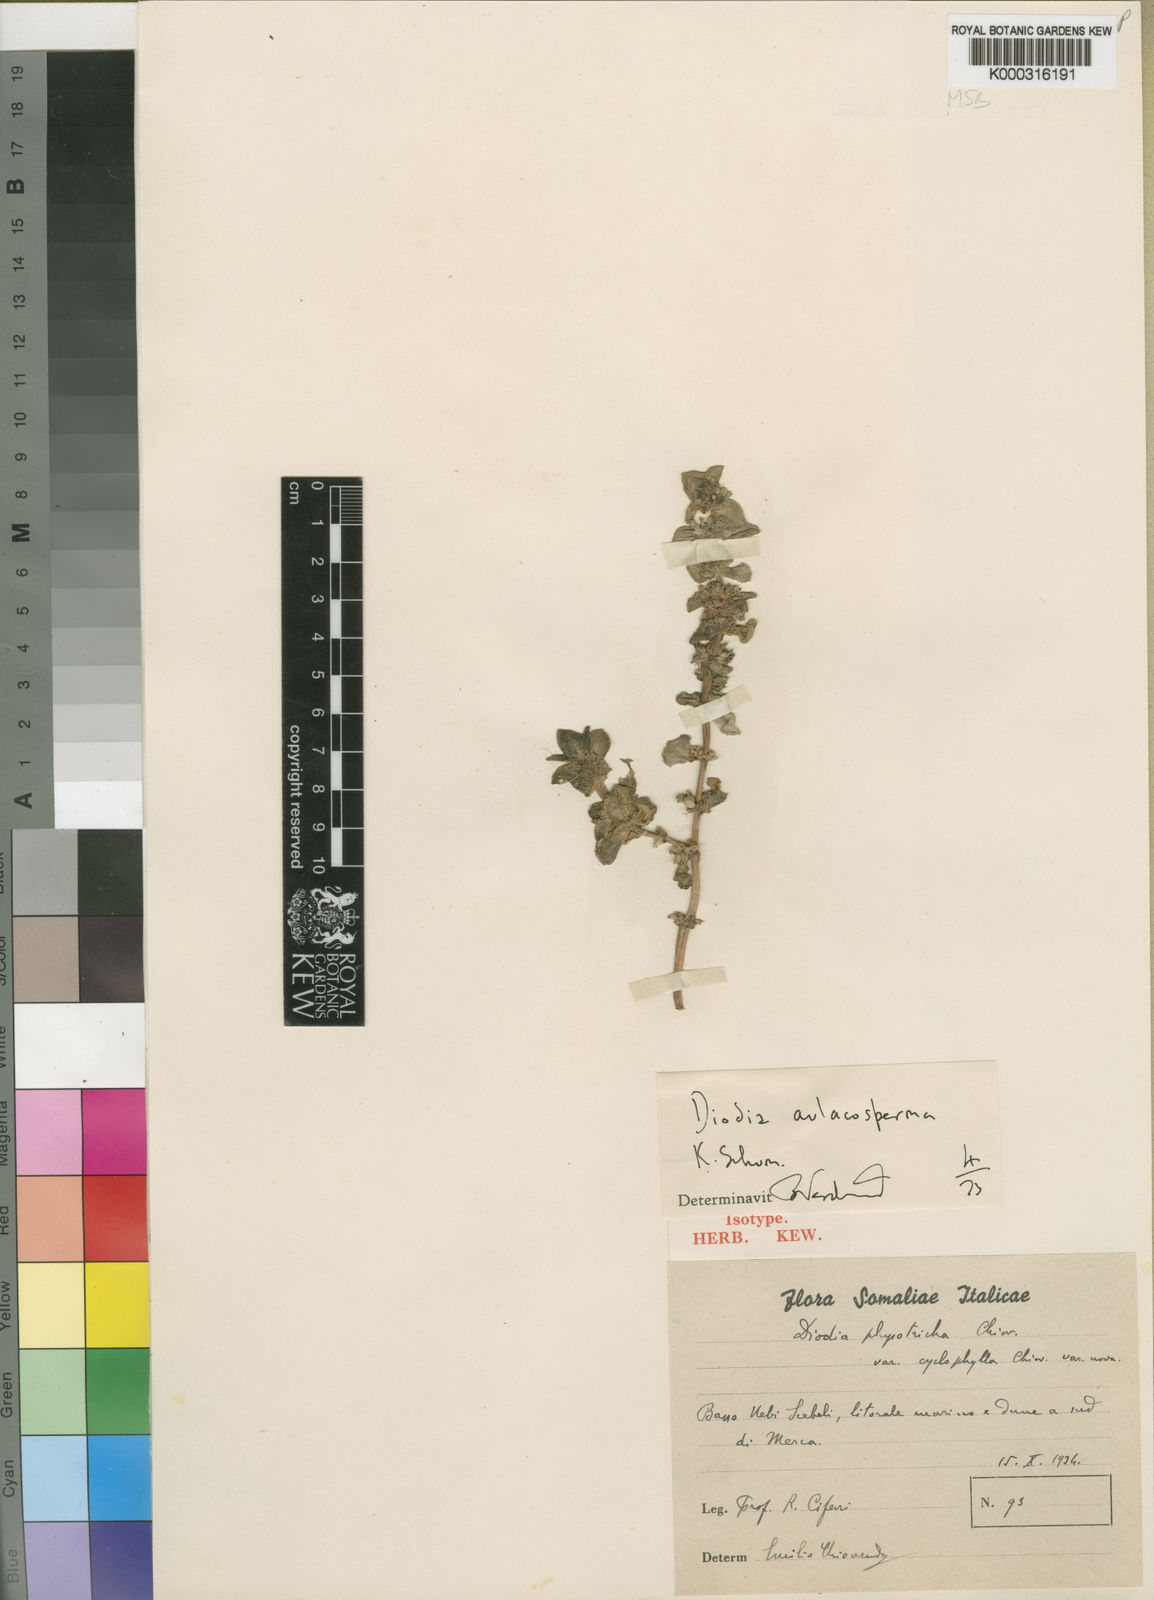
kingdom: Plantae
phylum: Tracheophyta
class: Magnoliopsida
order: Gentianales
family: Rubiaceae
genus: Diodia
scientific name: Diodia aulacosperma
